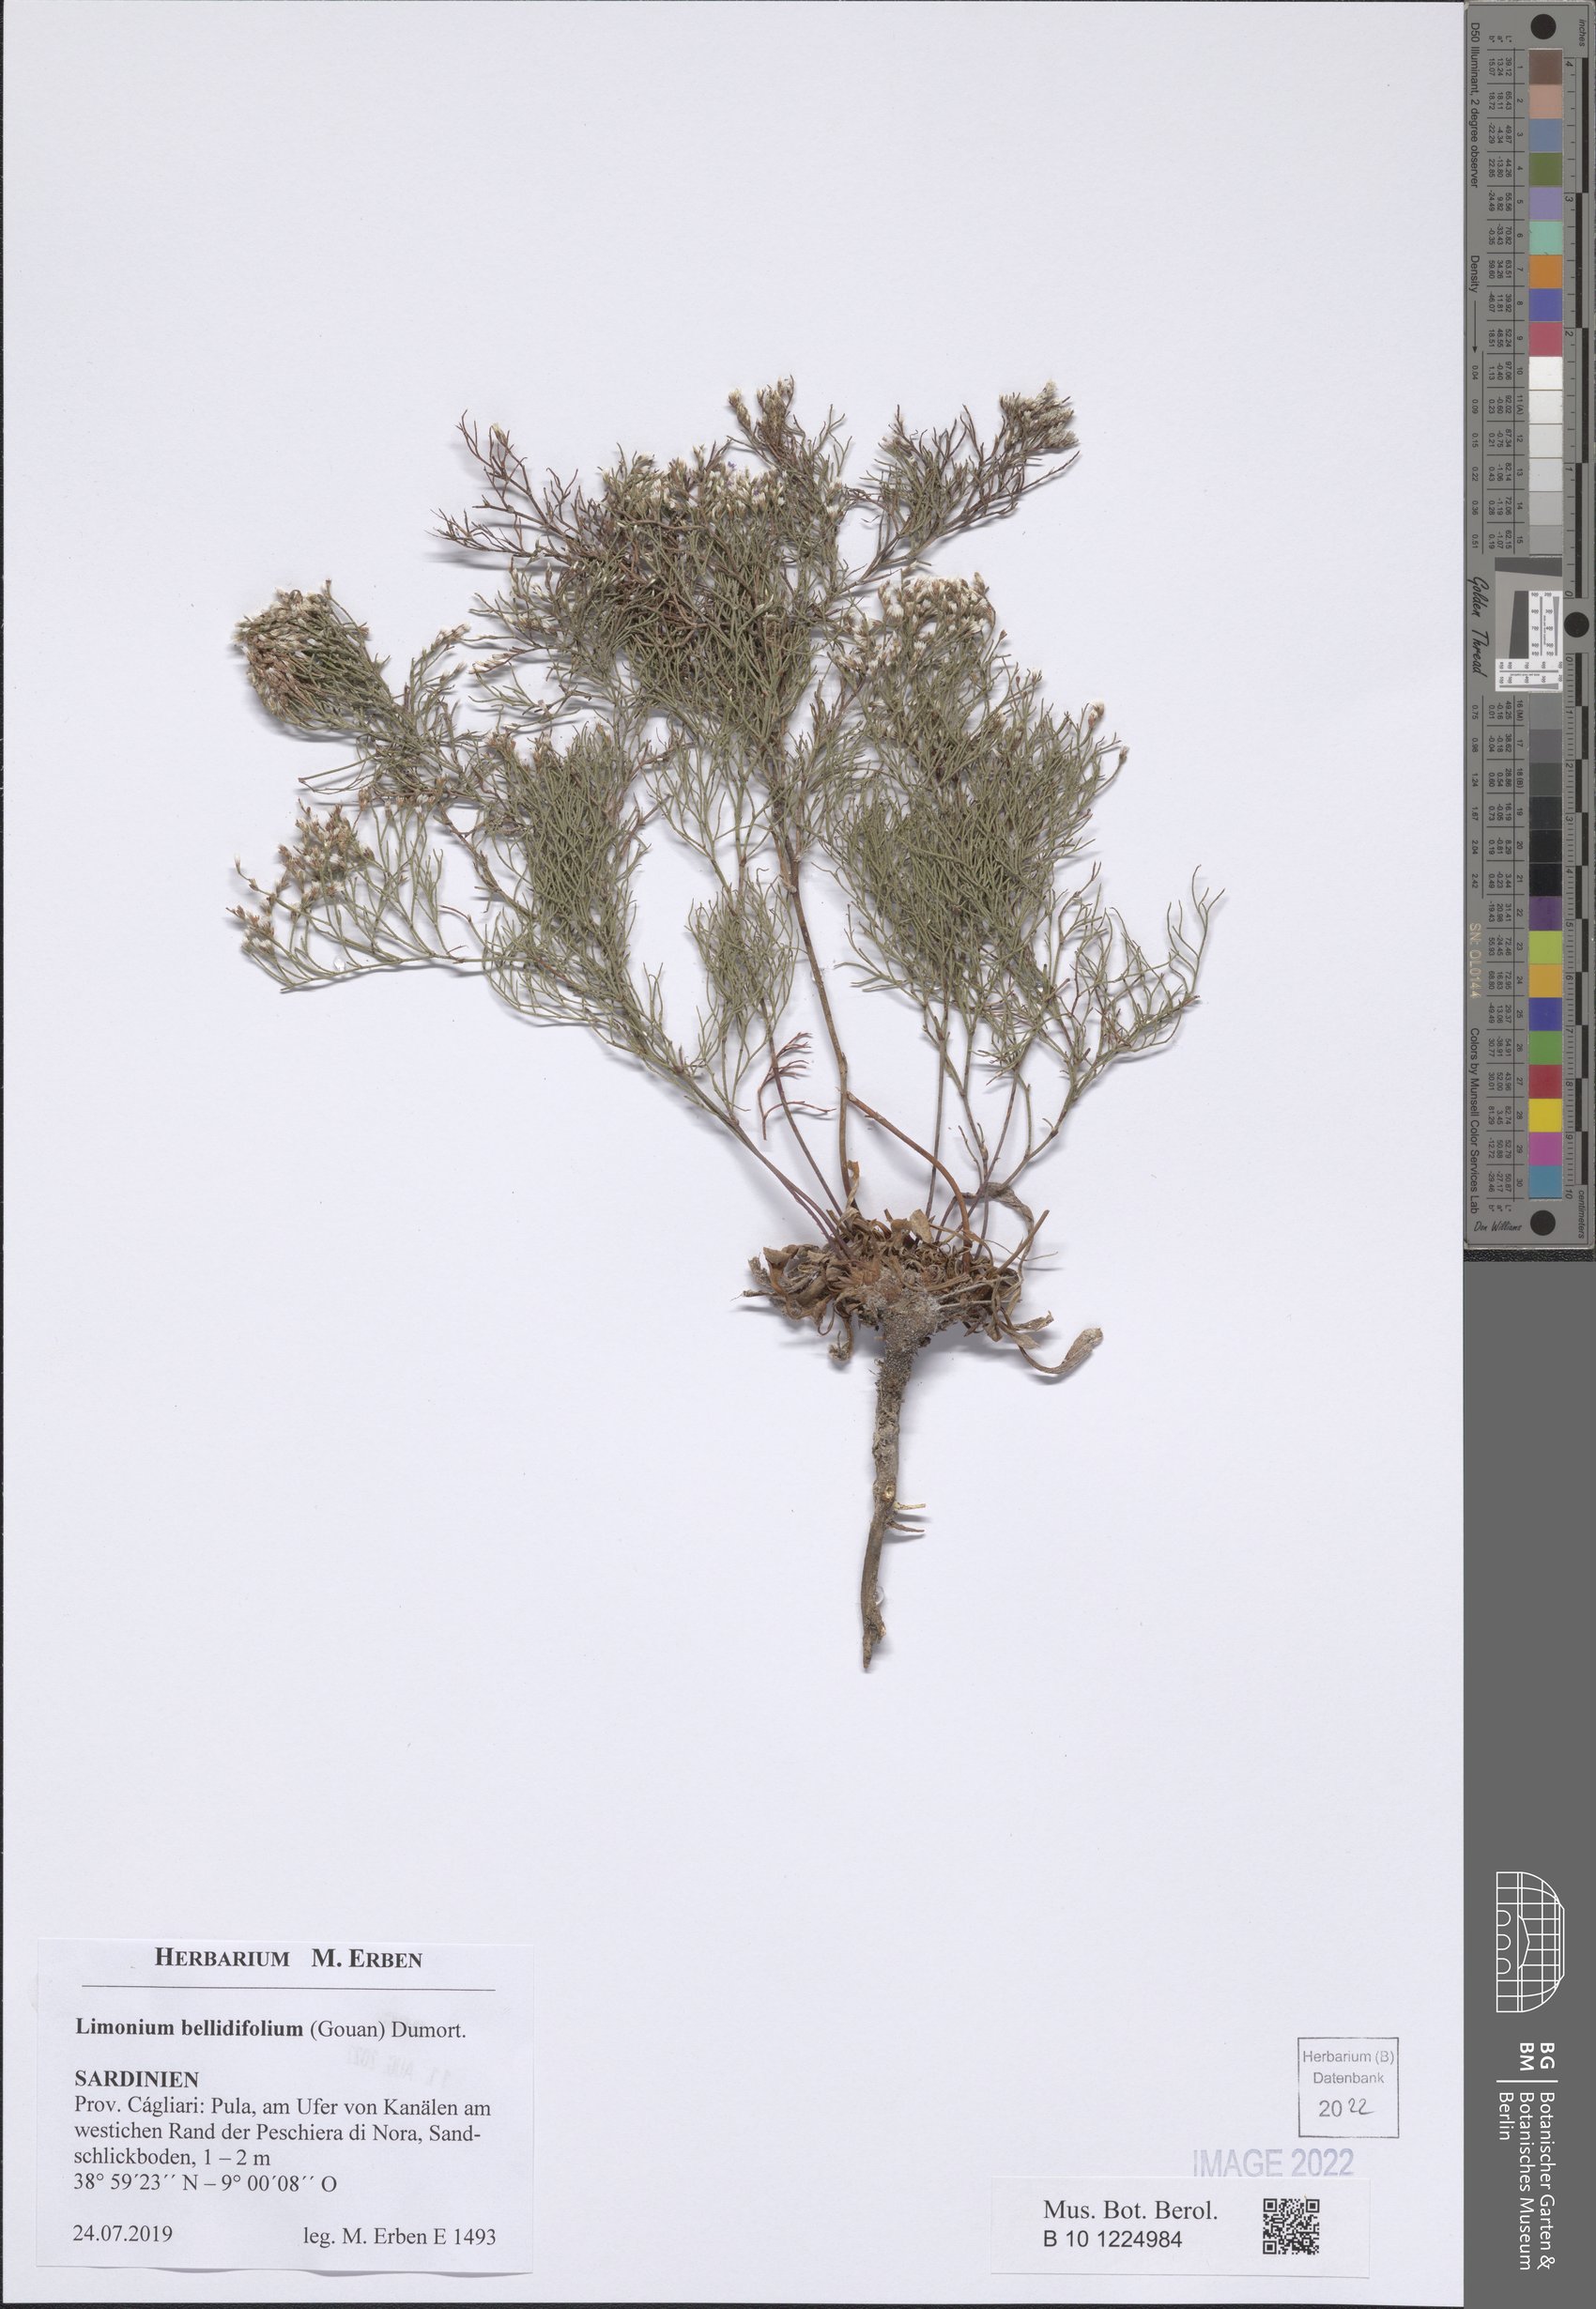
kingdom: Plantae
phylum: Tracheophyta
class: Magnoliopsida
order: Caryophyllales
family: Plumbaginaceae
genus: Limonium
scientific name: Limonium bellidifolium
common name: Matted sea-lavender
